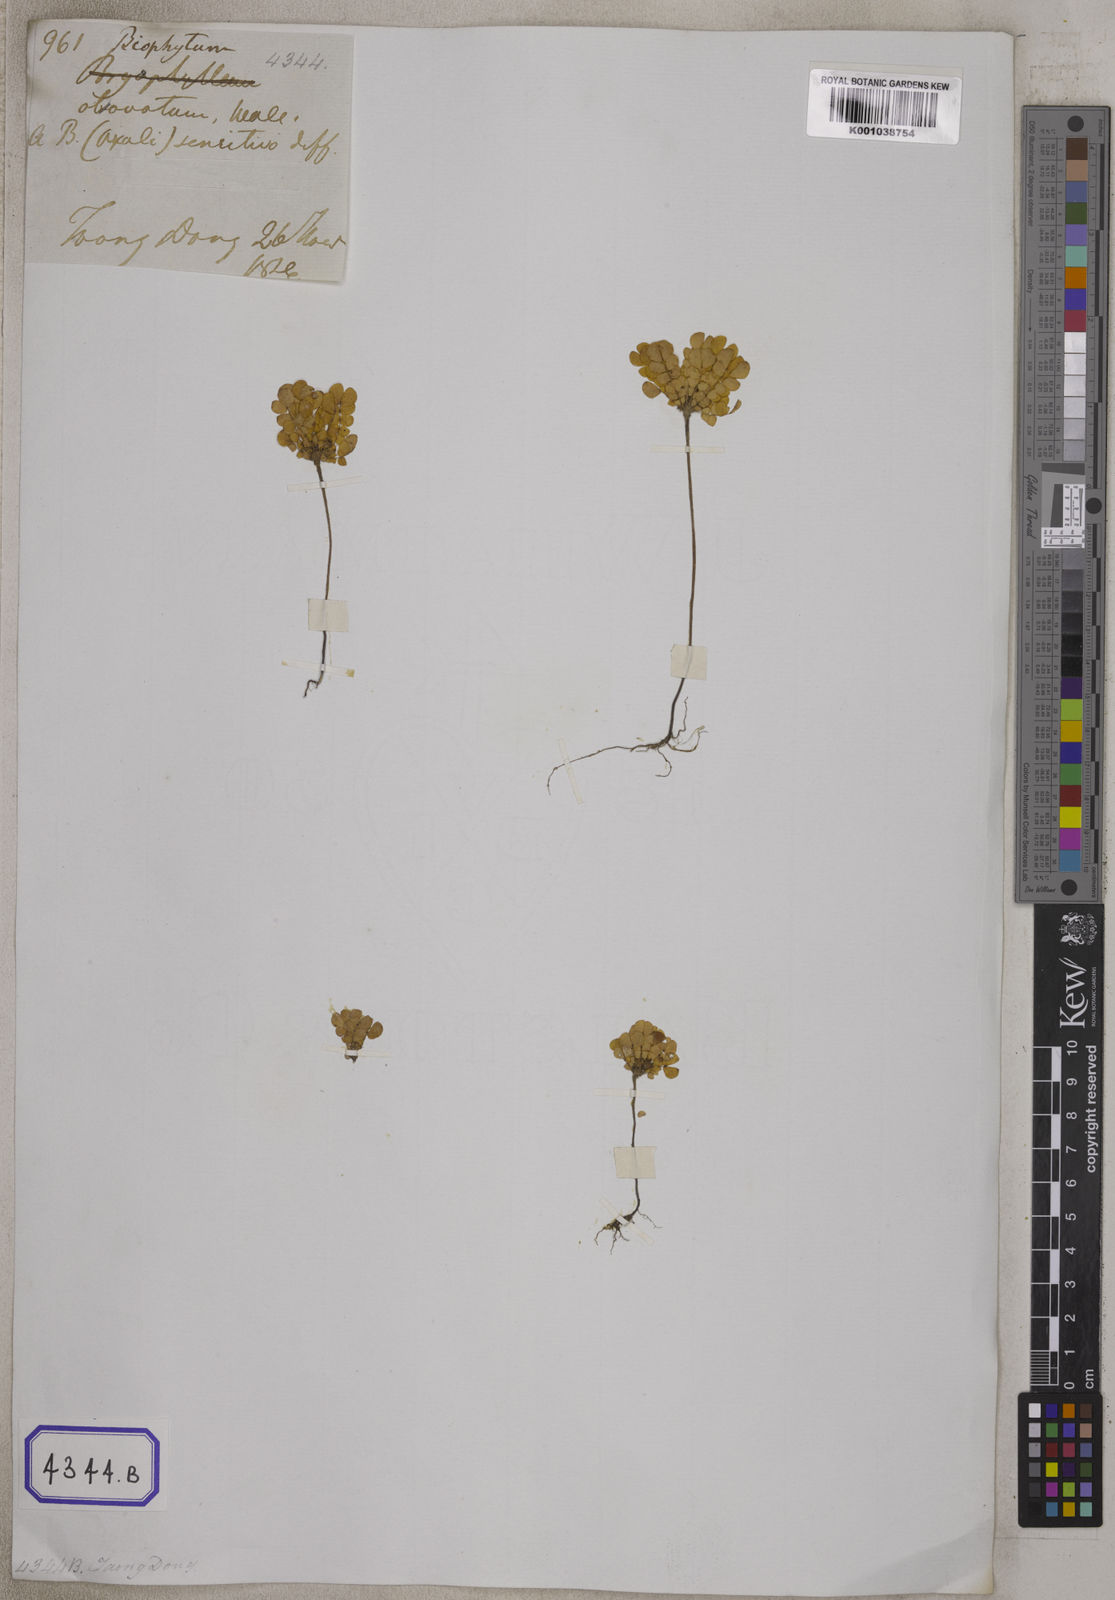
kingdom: Plantae
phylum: Tracheophyta
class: Magnoliopsida
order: Oxalidales
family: Oxalidaceae
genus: Biophytum
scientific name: Biophytum
